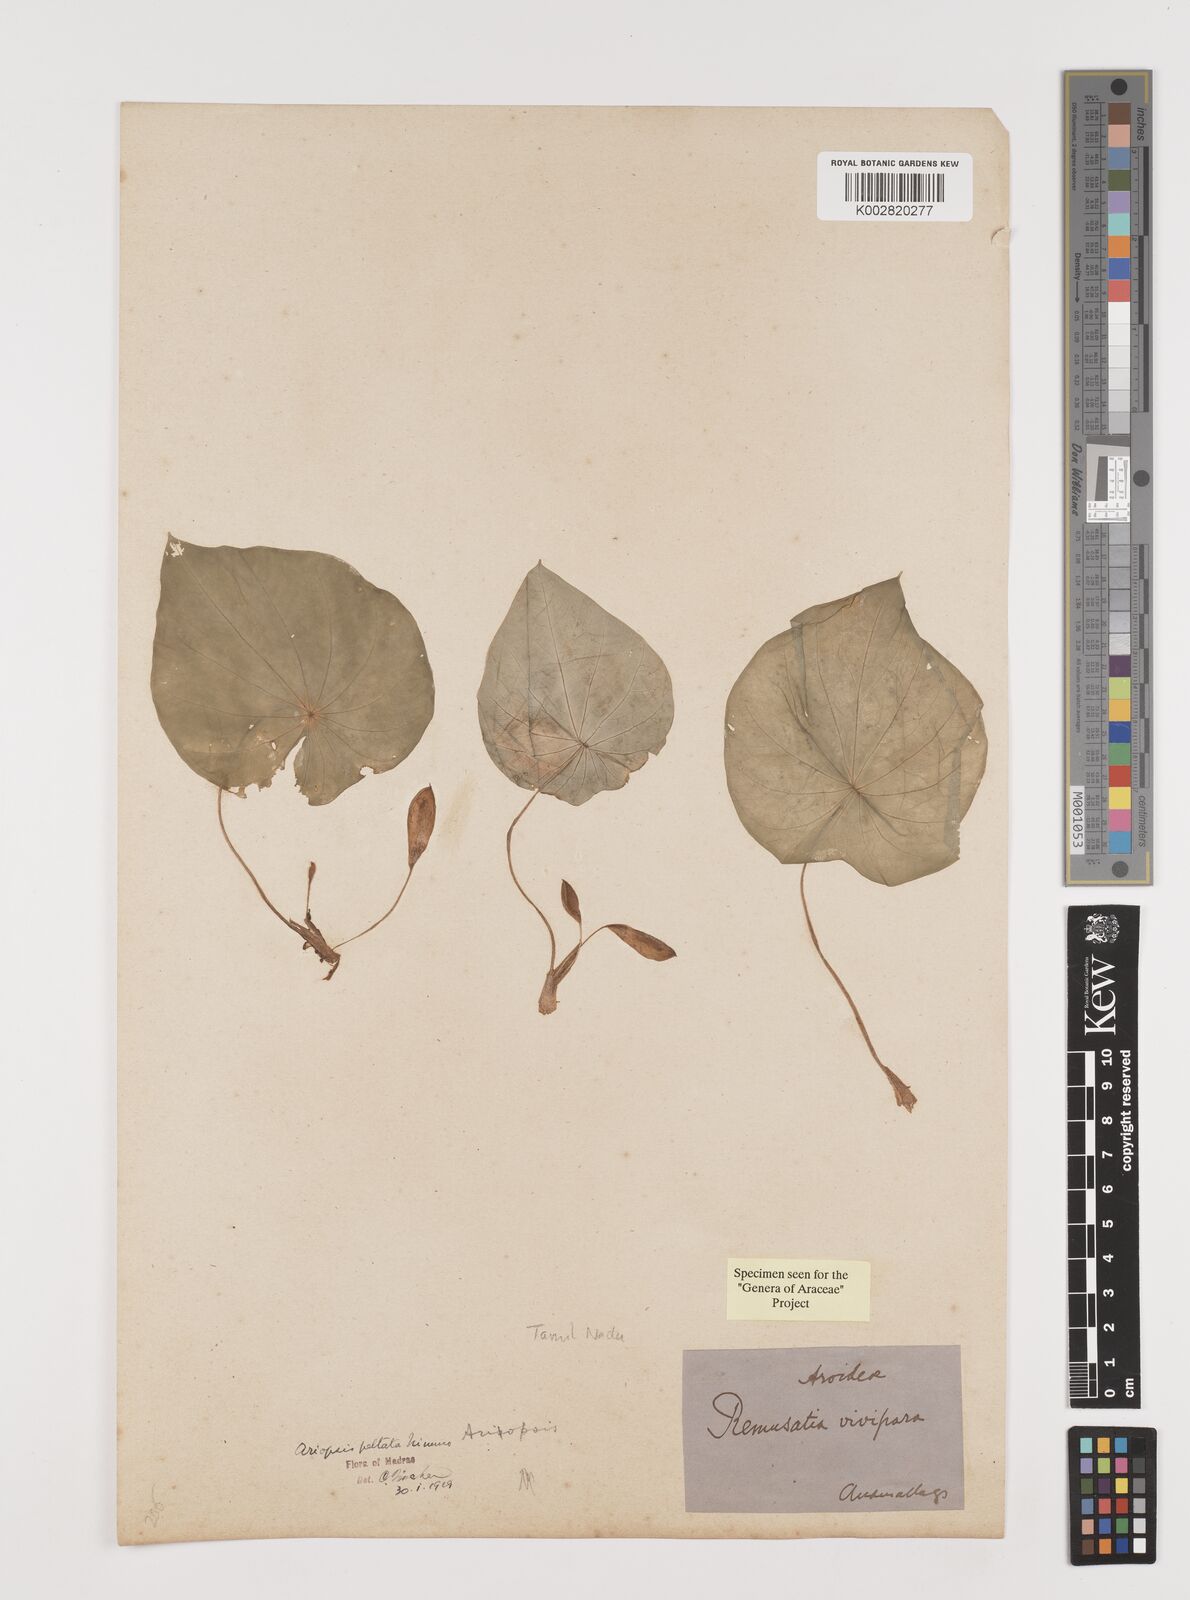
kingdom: Plantae
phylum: Tracheophyta
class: Liliopsida
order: Alismatales
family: Araceae
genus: Ariopsis
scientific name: Ariopsis peltata
